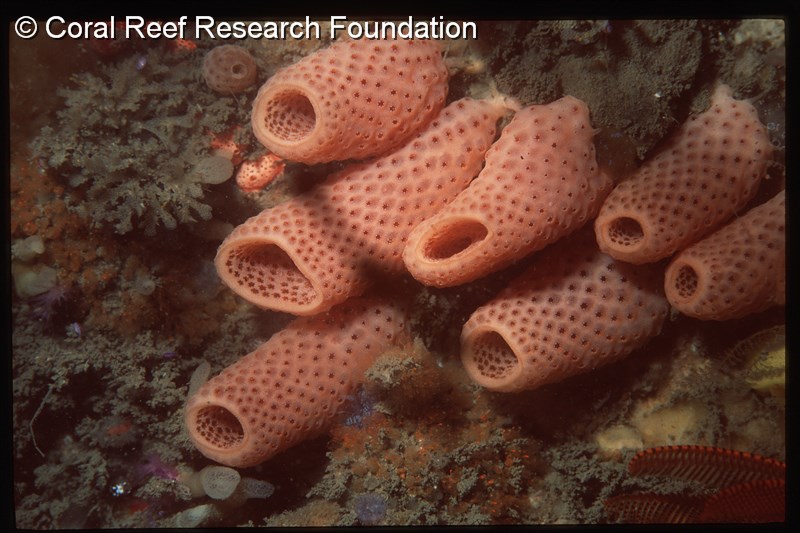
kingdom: Animalia
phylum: Chordata
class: Ascidiacea
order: Aplousobranchia
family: Didemnidae
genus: Atriolum
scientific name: Atriolum marinense
